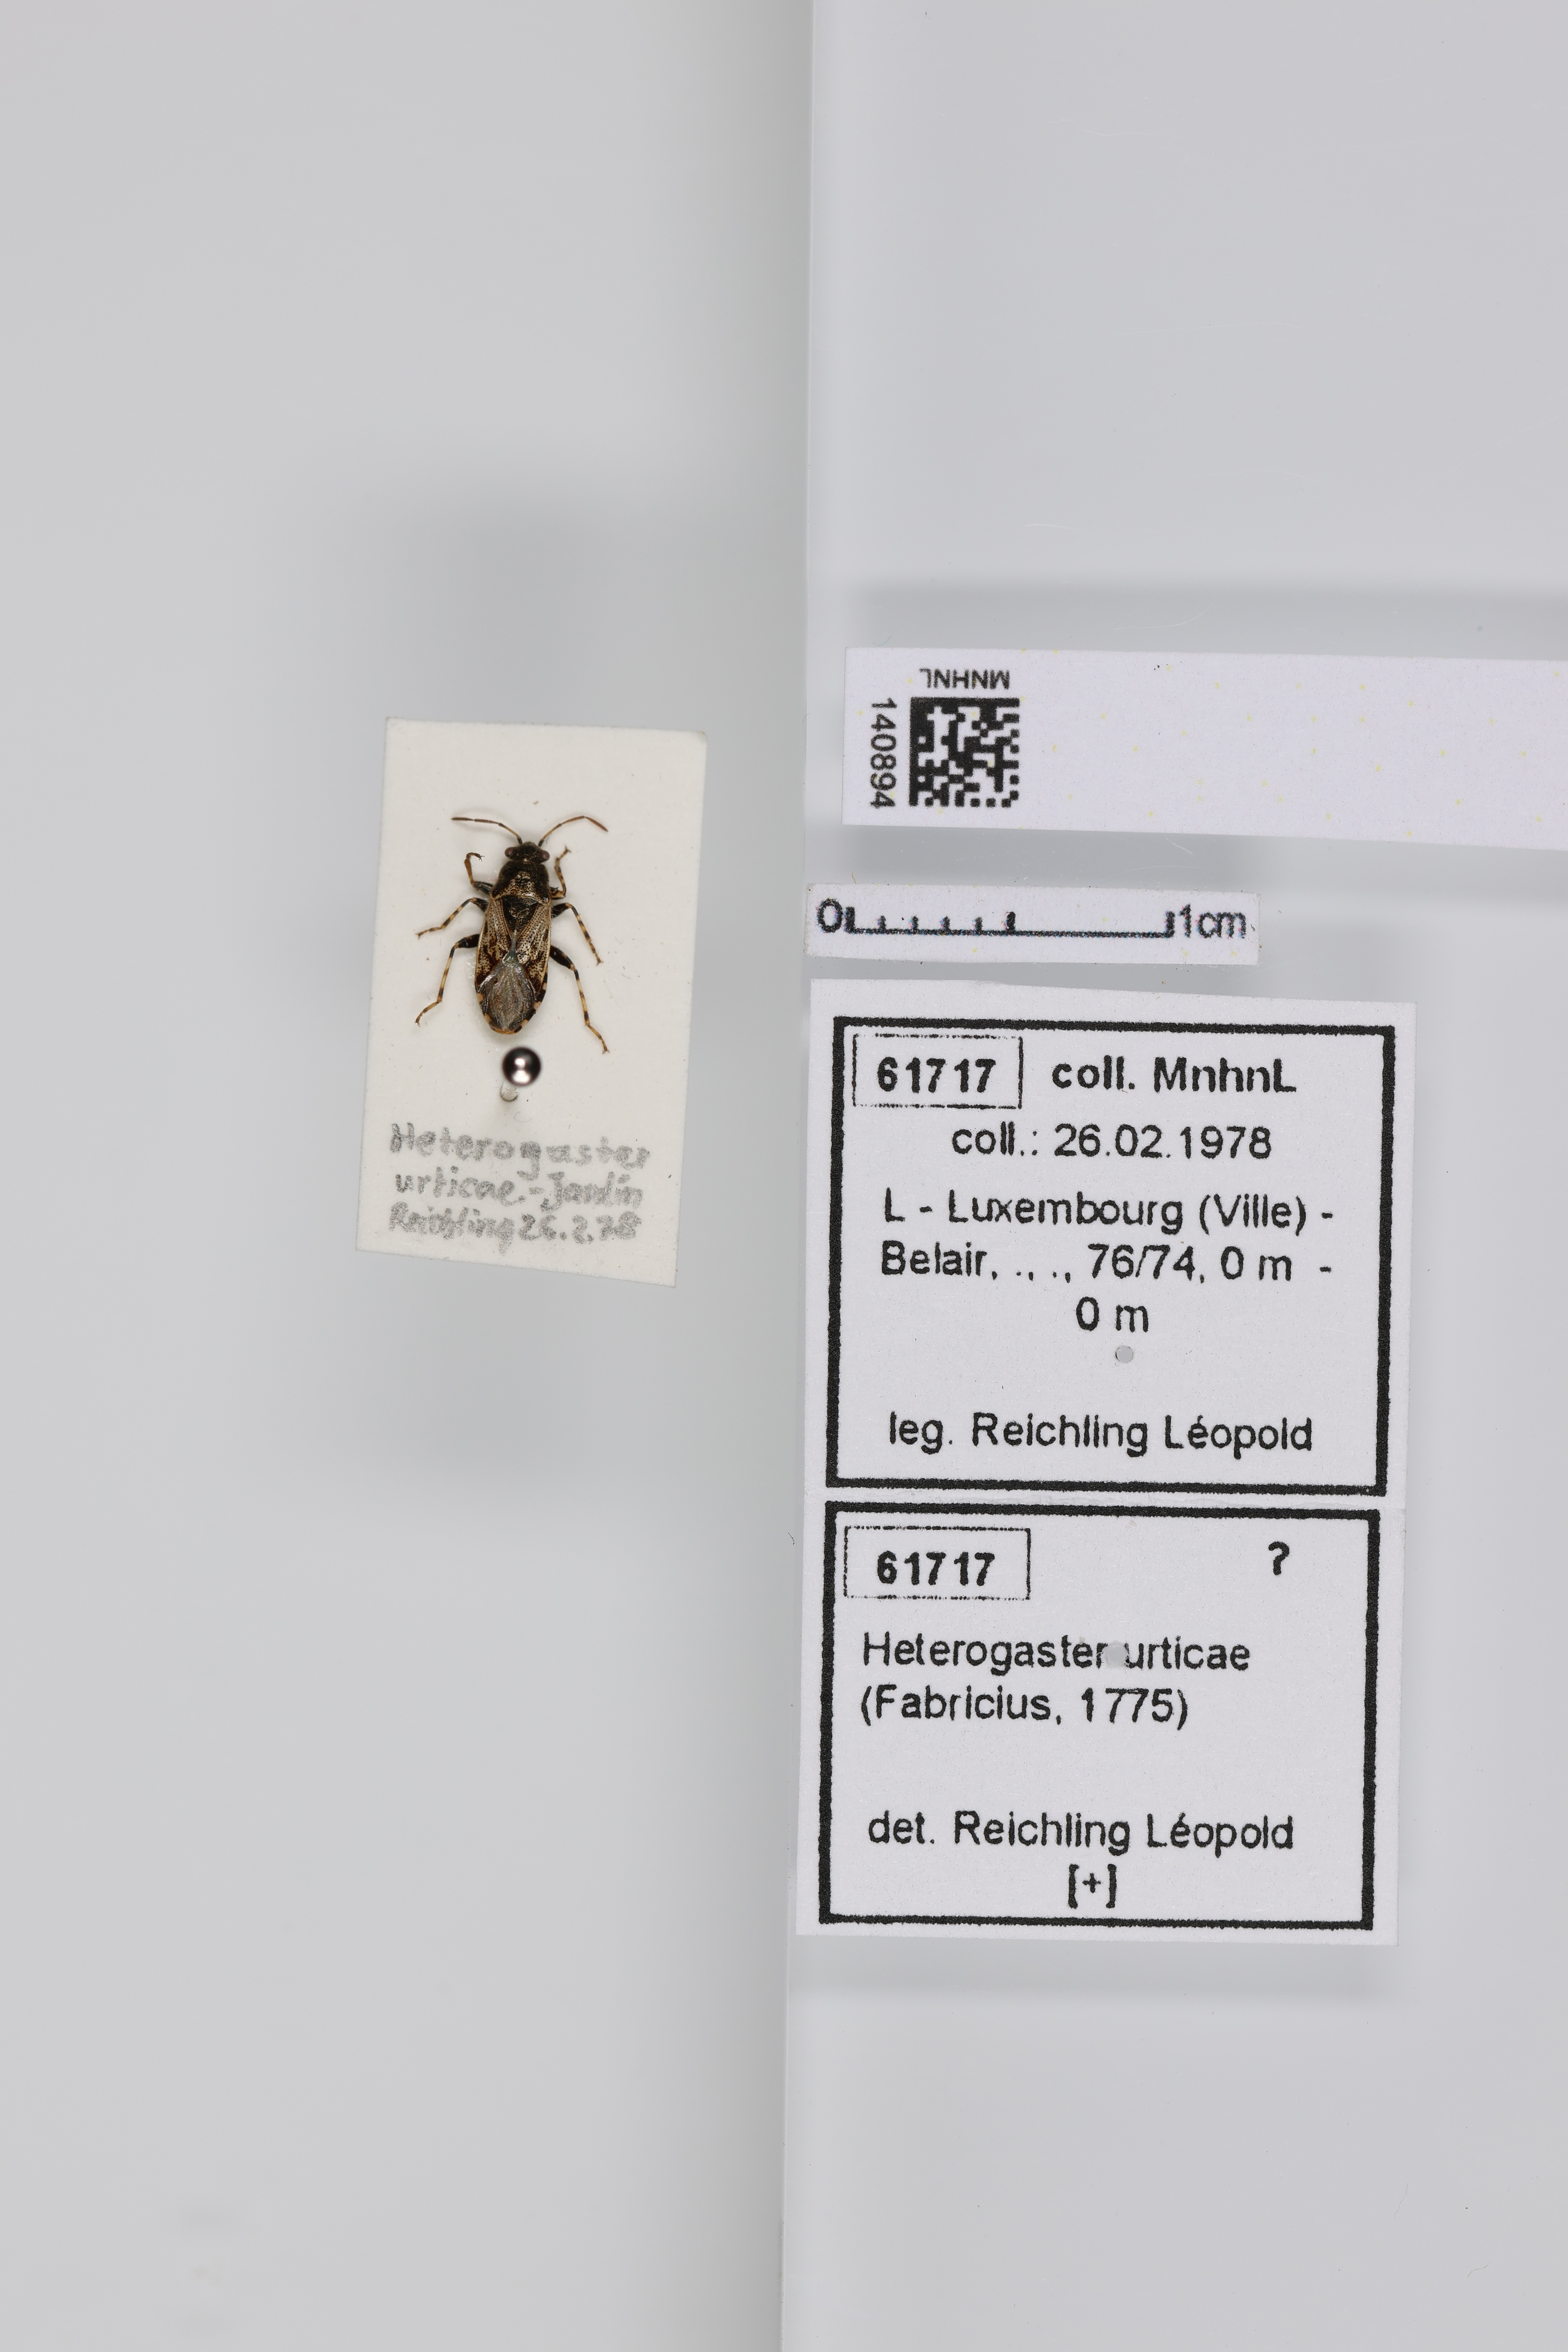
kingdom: Animalia
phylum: Arthropoda
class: Insecta
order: Hemiptera
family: Heterogastridae
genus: Heterogaster
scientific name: Heterogaster urticae
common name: Seed bug
